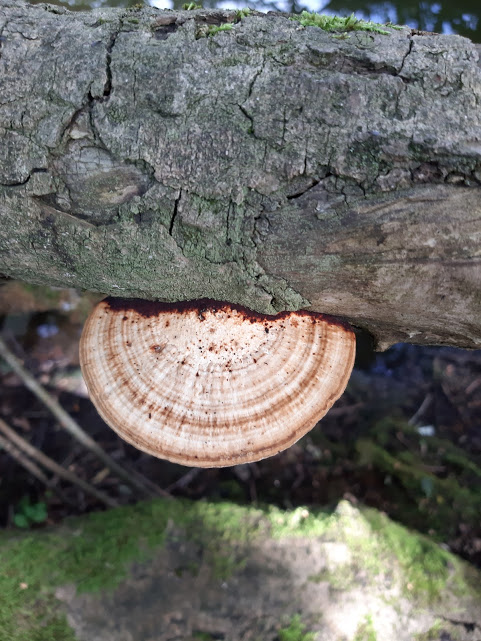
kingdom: Fungi
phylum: Basidiomycota
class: Agaricomycetes
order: Polyporales
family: Polyporaceae
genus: Daedaleopsis
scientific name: Daedaleopsis confragosa
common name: rødmende læderporesvamp
